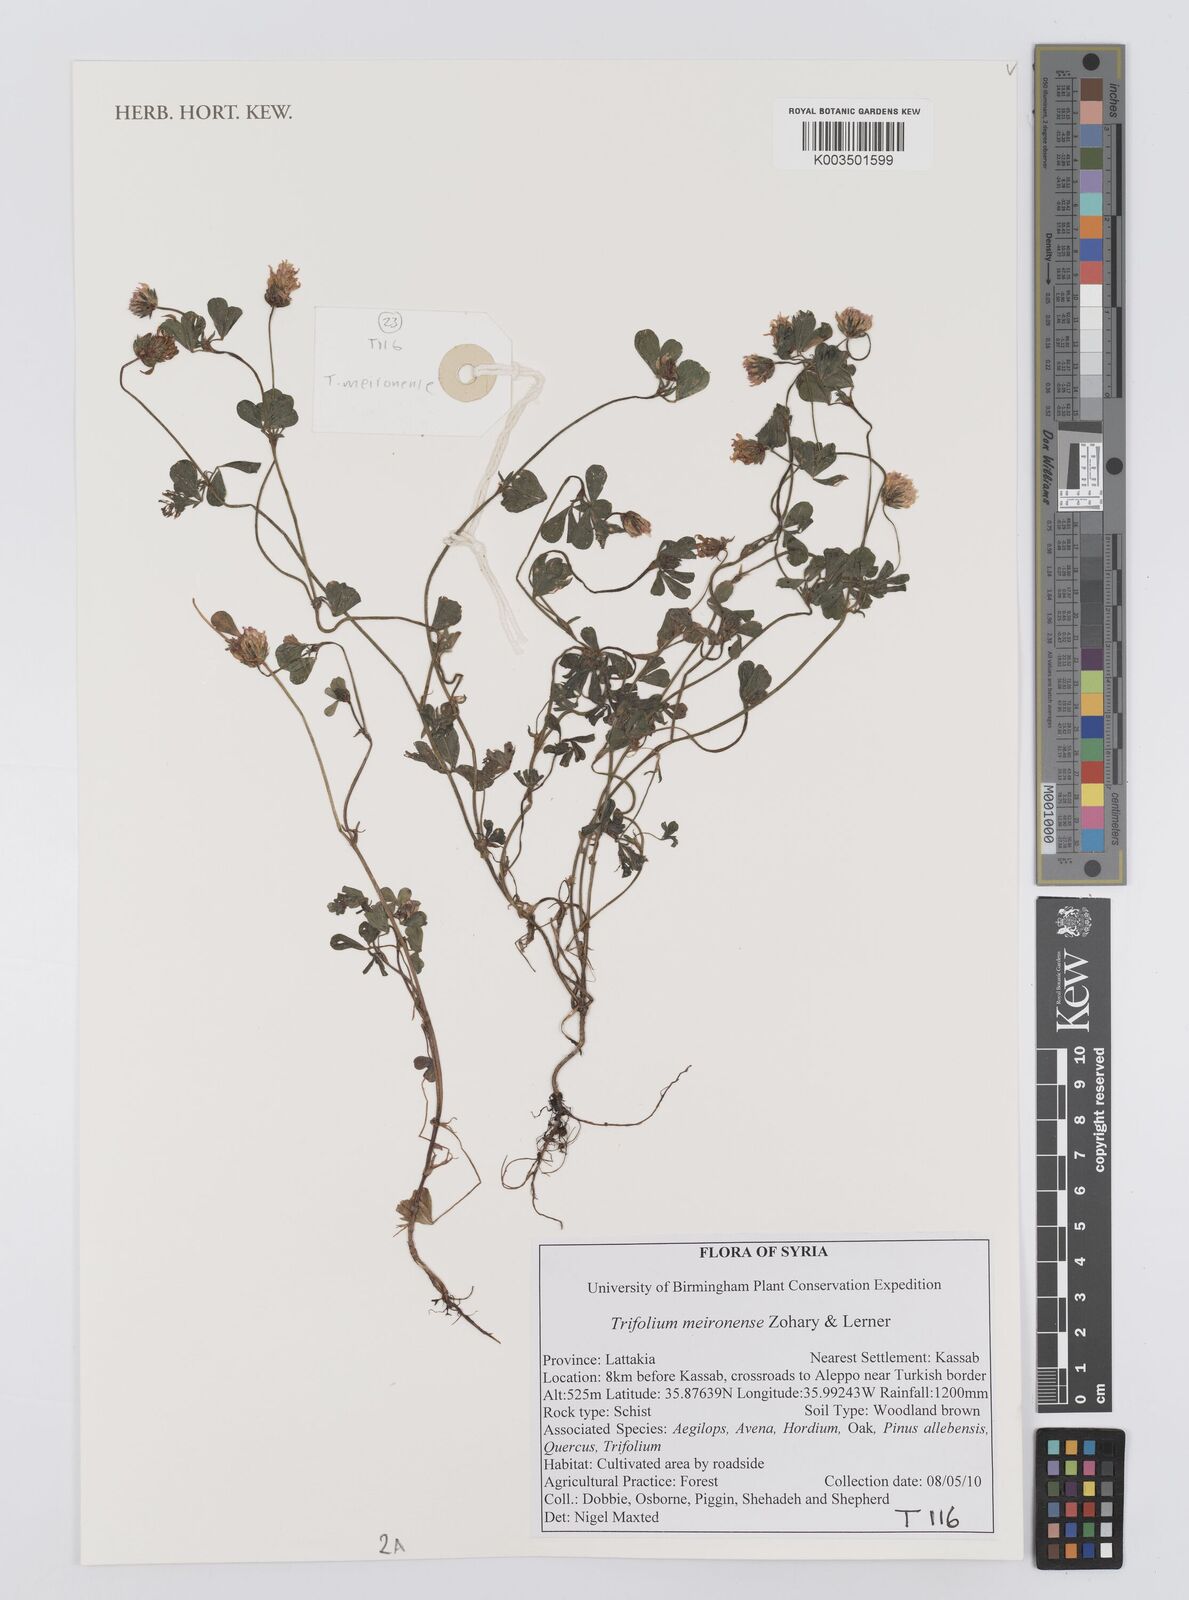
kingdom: Plantae
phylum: Tracheophyta
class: Magnoliopsida
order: Fabales
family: Fabaceae
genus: Trifolium
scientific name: Trifolium meironense
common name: Meiron clover
